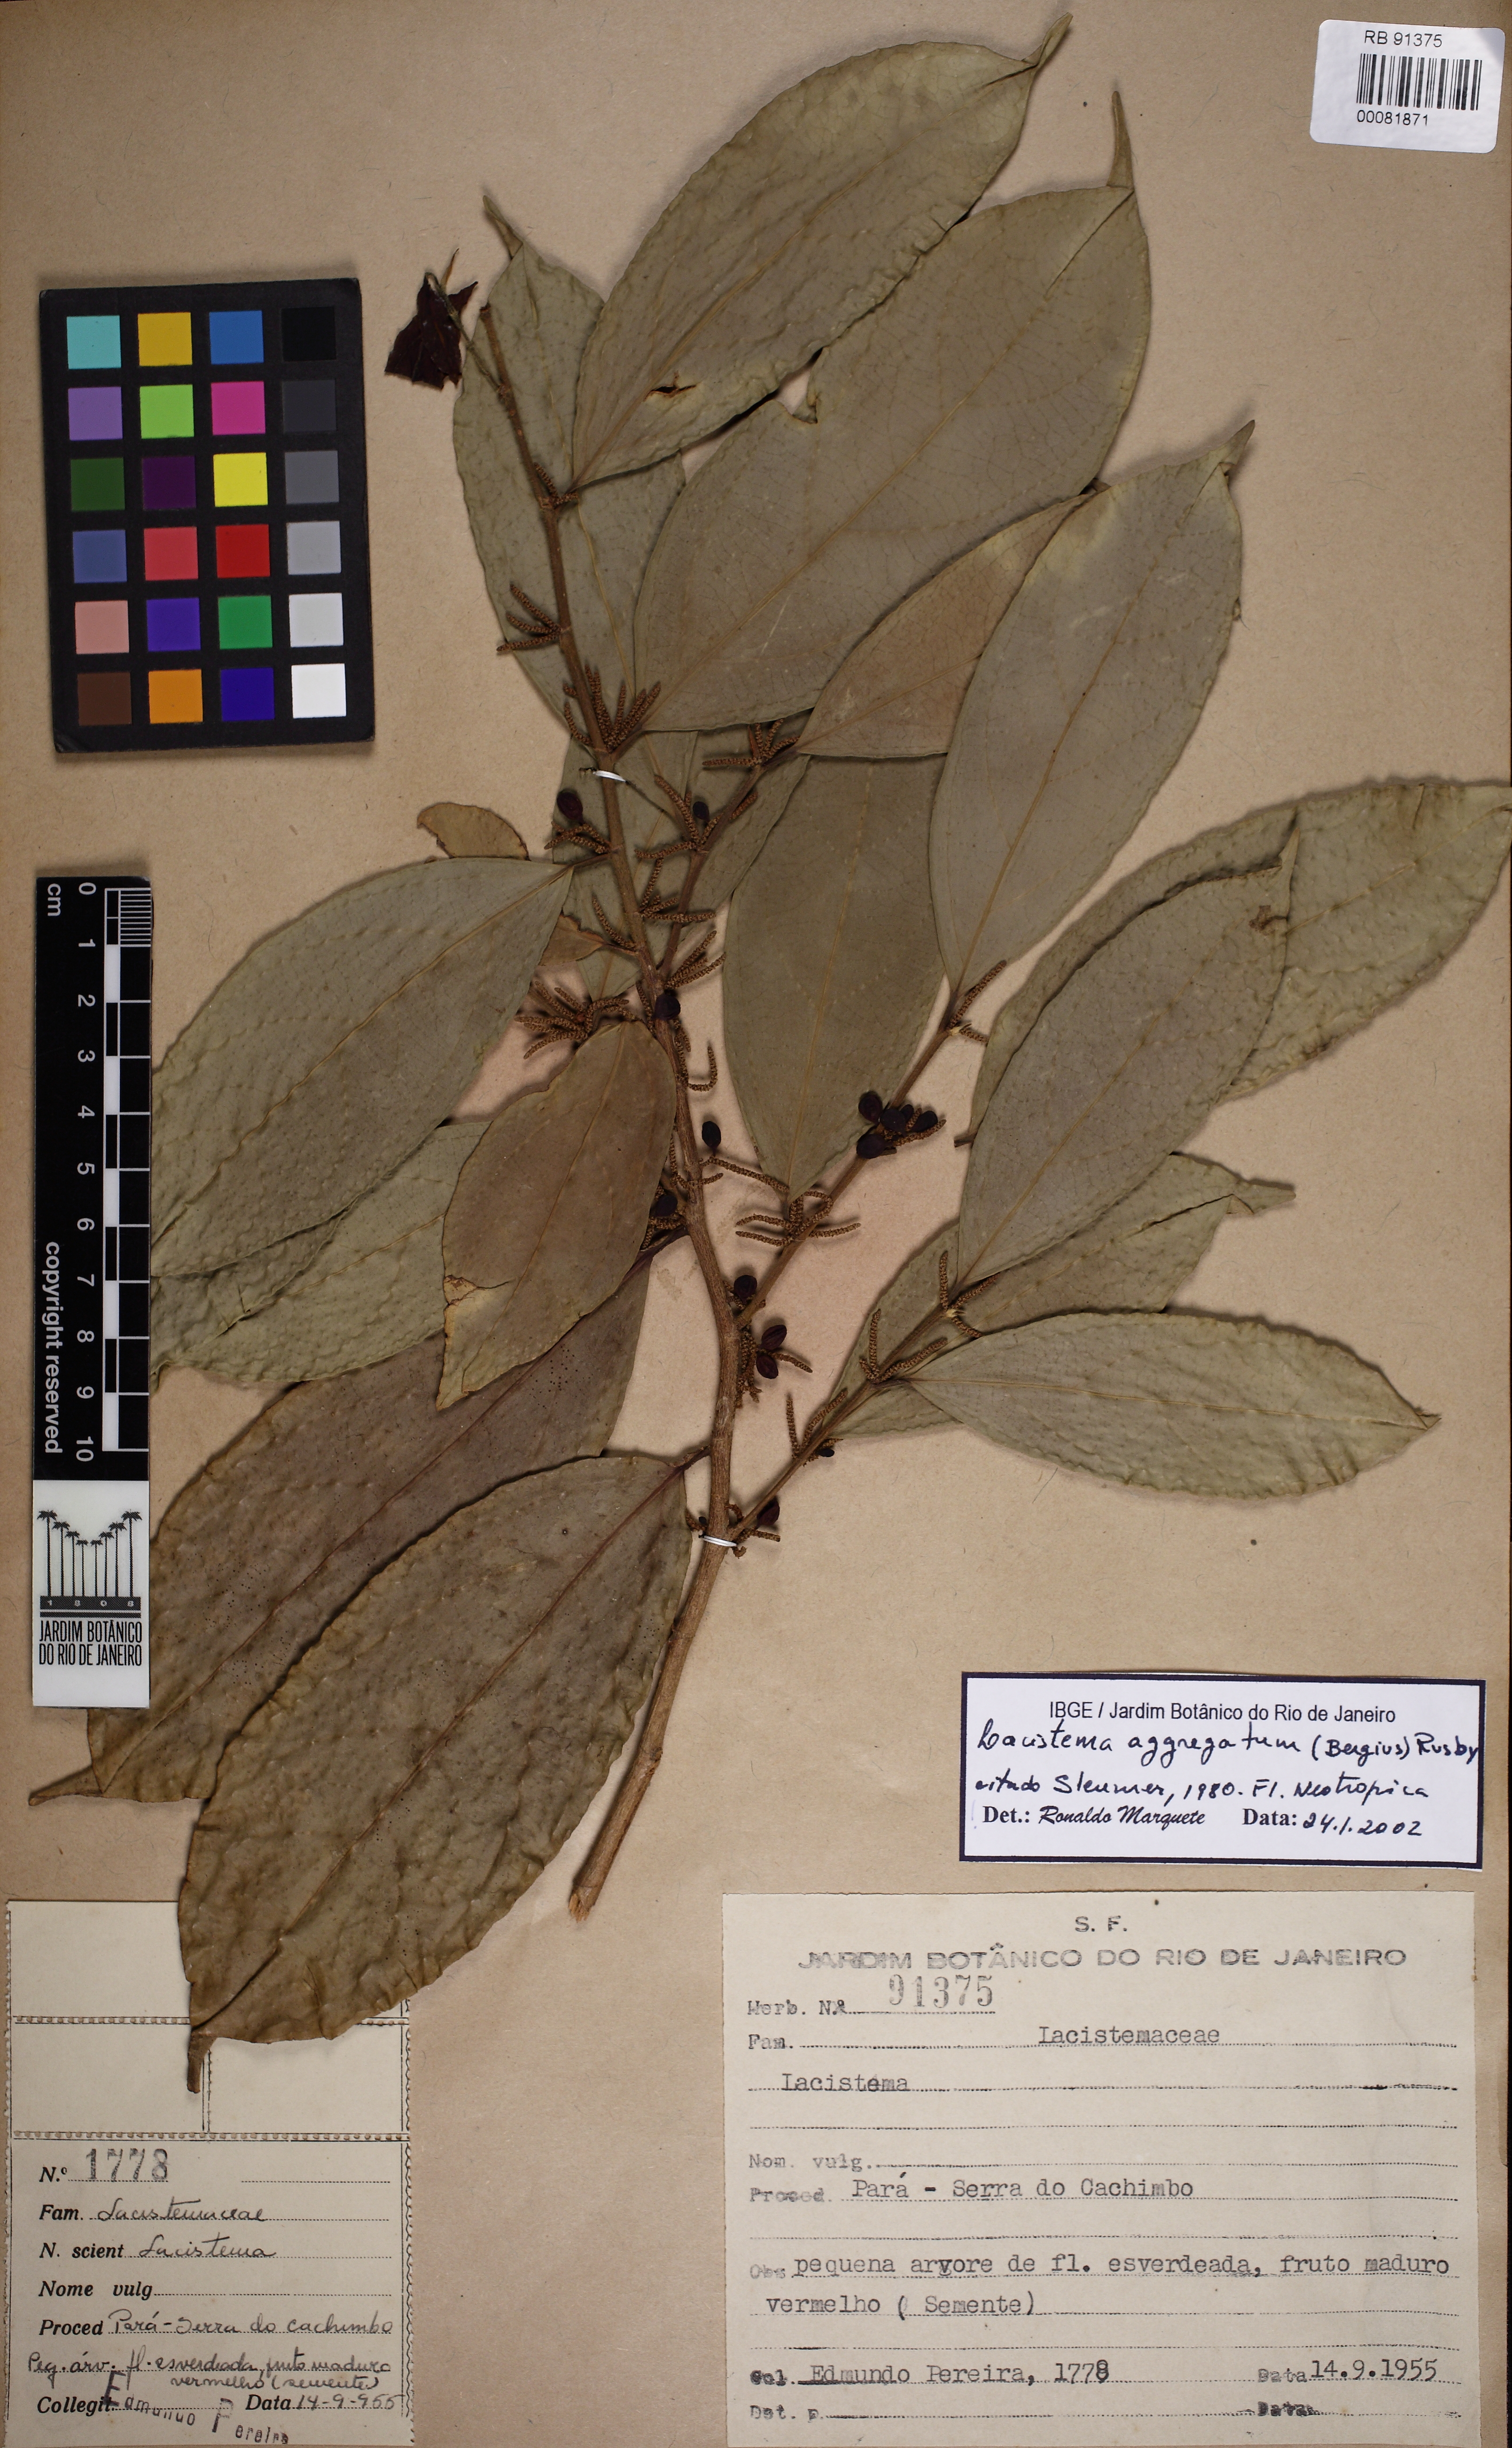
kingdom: Plantae
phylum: Tracheophyta
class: Magnoliopsida
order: Malpighiales
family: Lacistemataceae
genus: Lacistema
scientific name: Lacistema aggregatum
